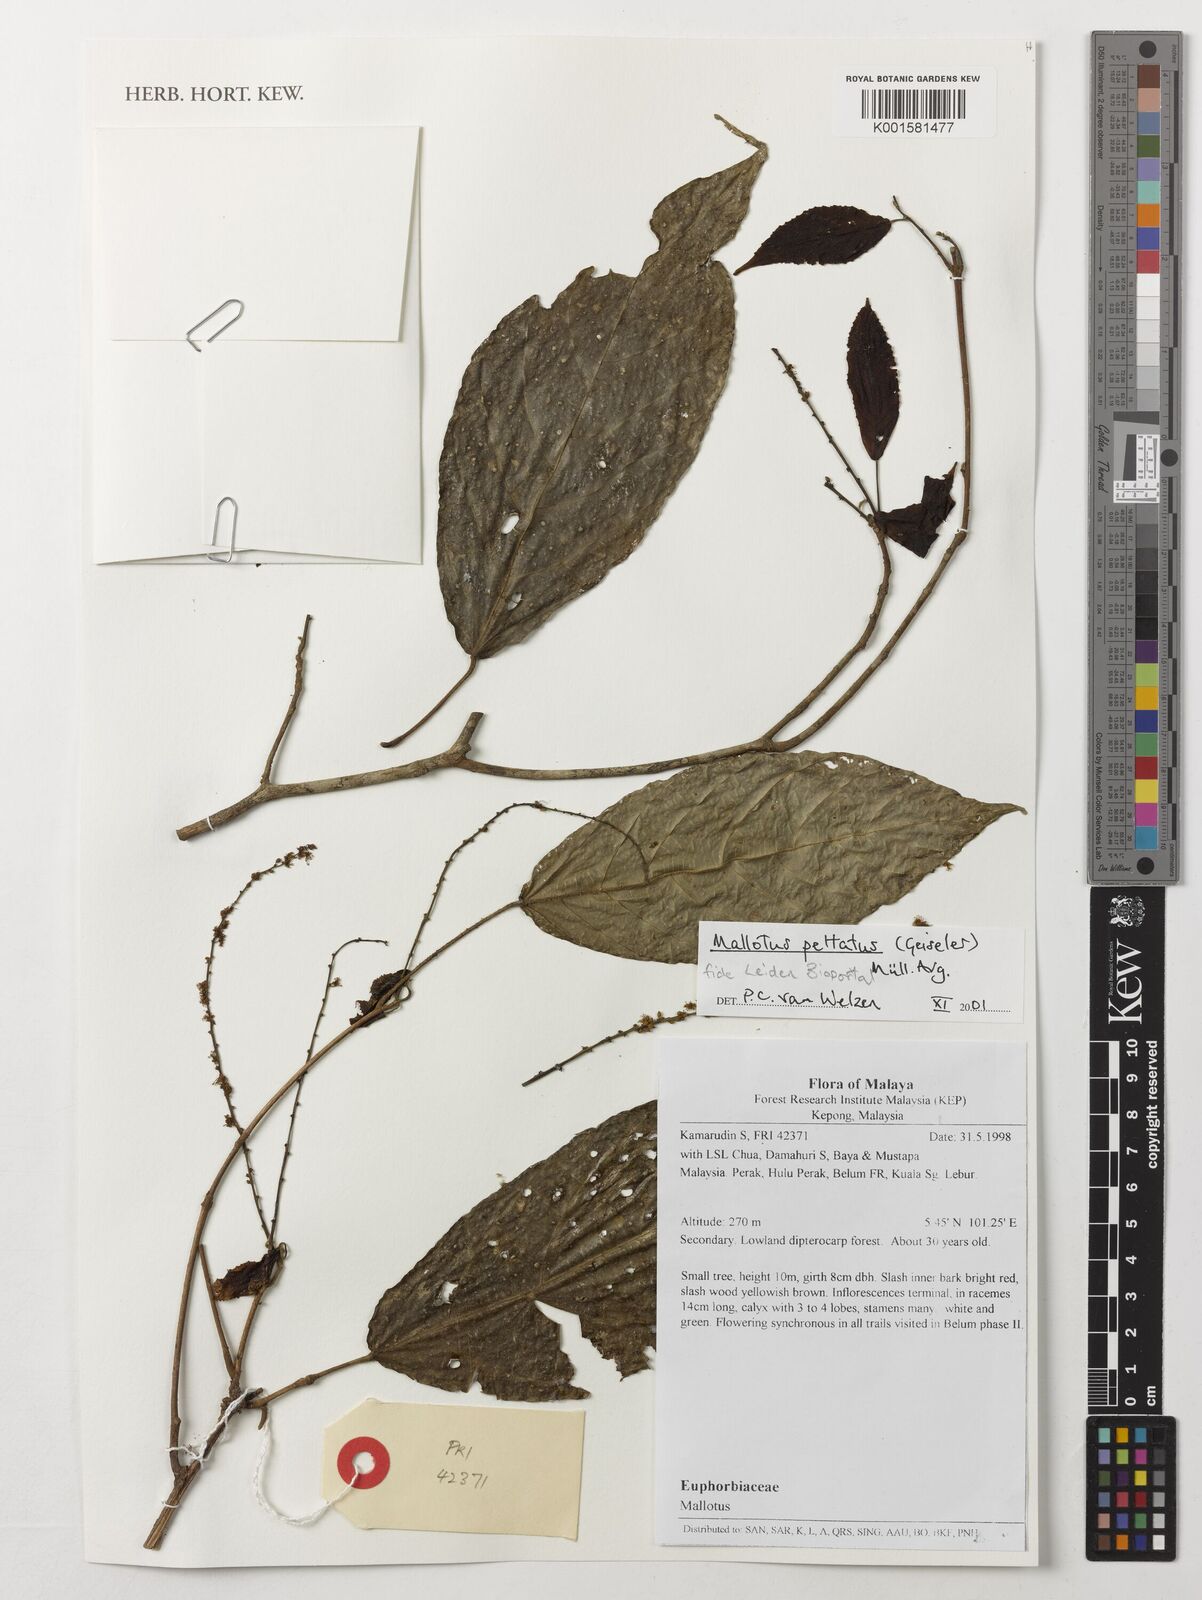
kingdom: Plantae
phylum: Tracheophyta
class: Magnoliopsida
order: Malpighiales
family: Euphorbiaceae
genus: Mallotus
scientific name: Mallotus peltatus
